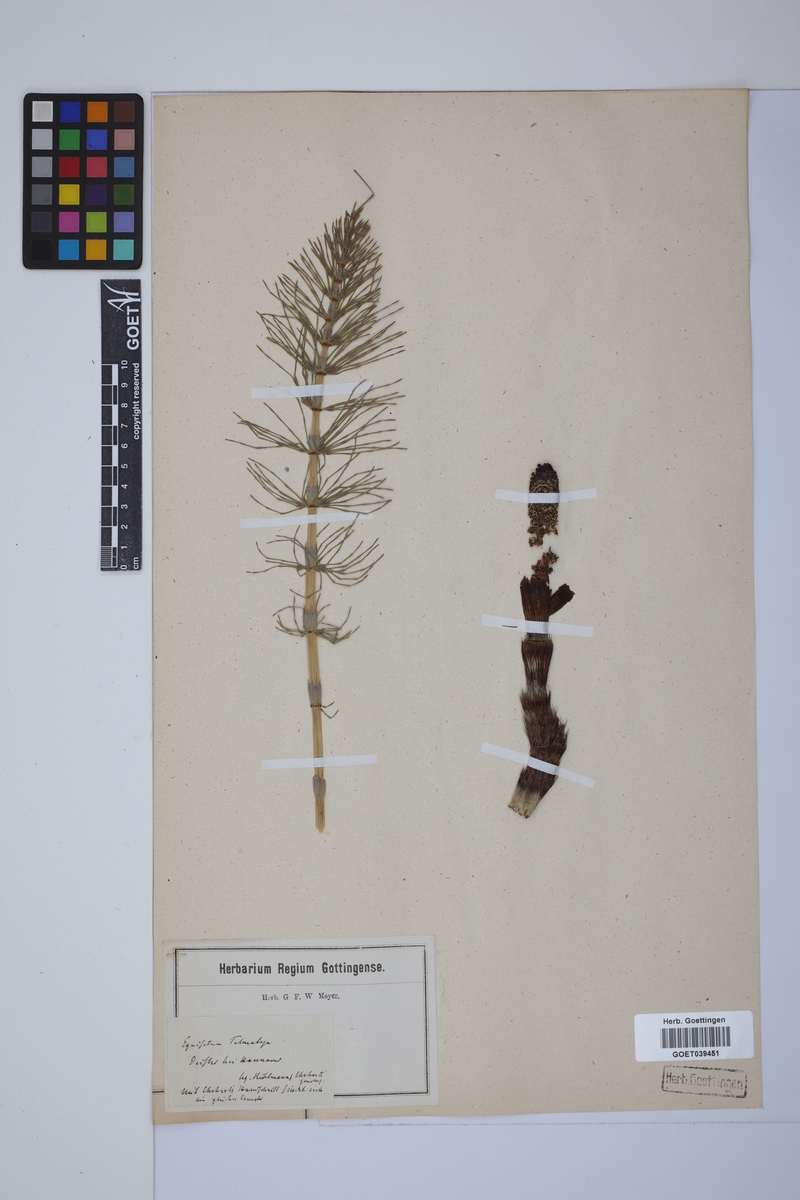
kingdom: Plantae
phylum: Tracheophyta
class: Polypodiopsida
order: Equisetales
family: Equisetaceae
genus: Equisetum
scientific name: Equisetum telmateia
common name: Great horsetail
